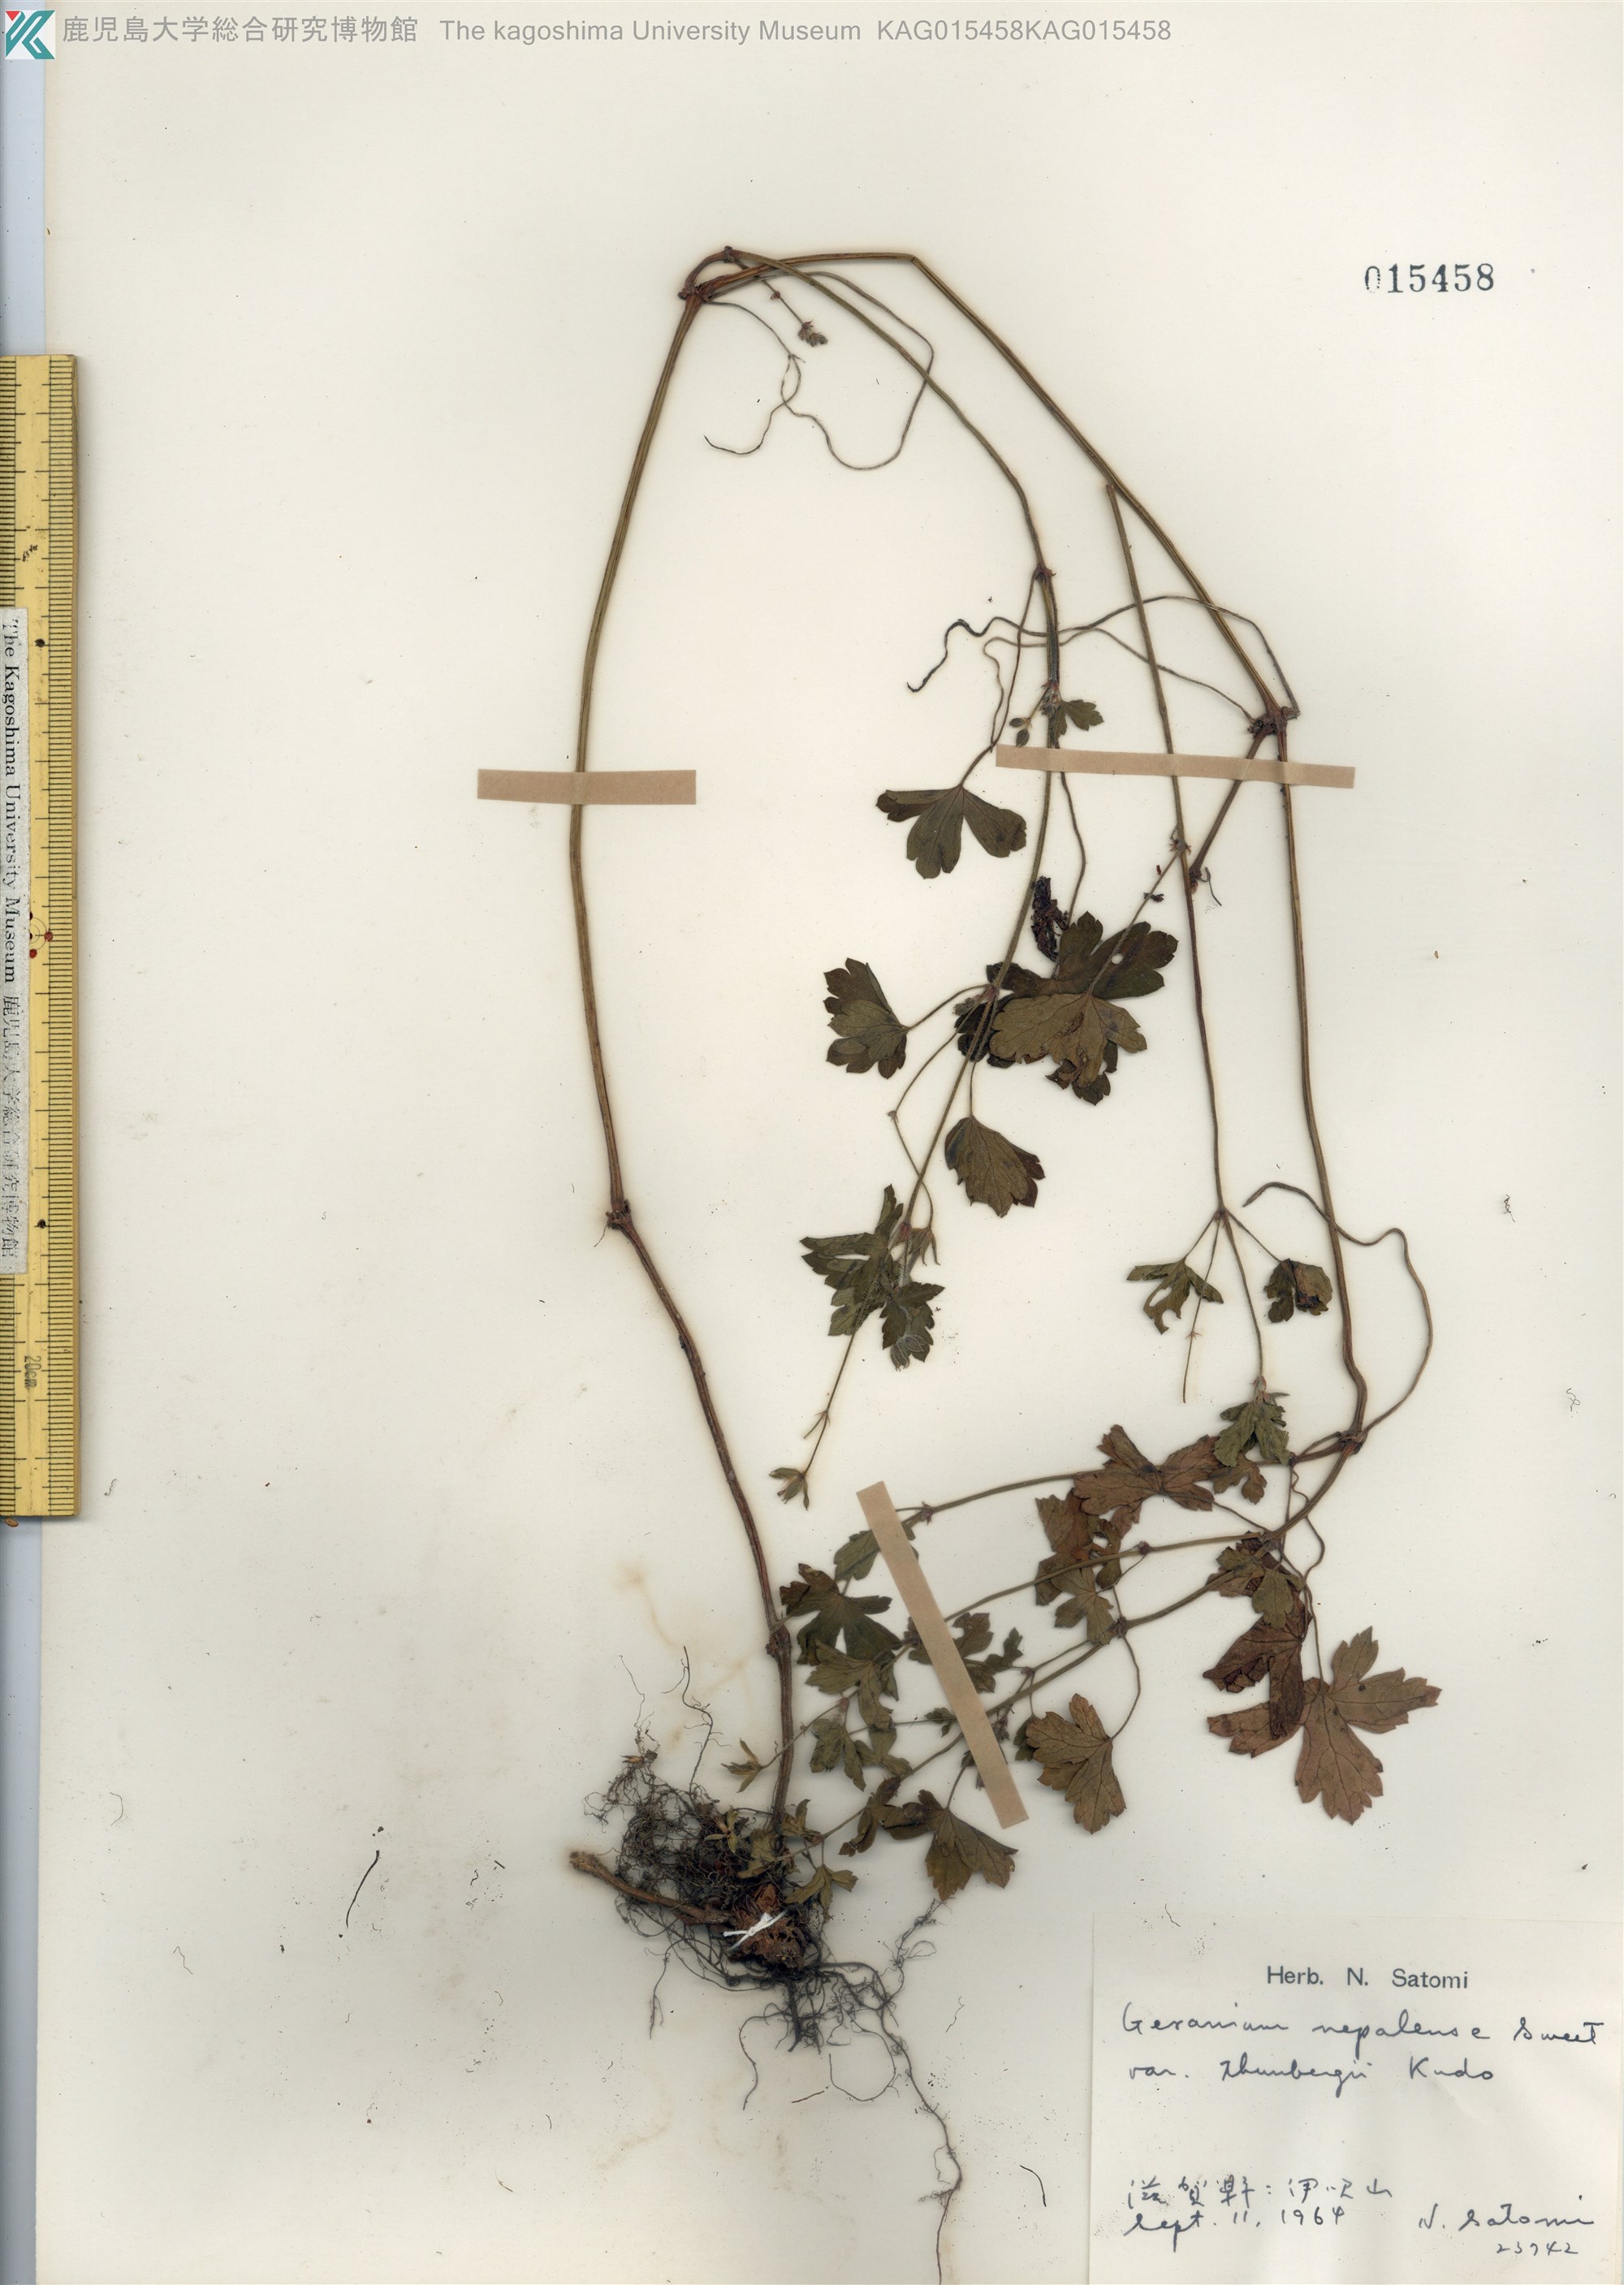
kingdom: Plantae
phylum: Tracheophyta
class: Magnoliopsida
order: Geraniales
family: Geraniaceae
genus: Geranium
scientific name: Geranium thunbergii
